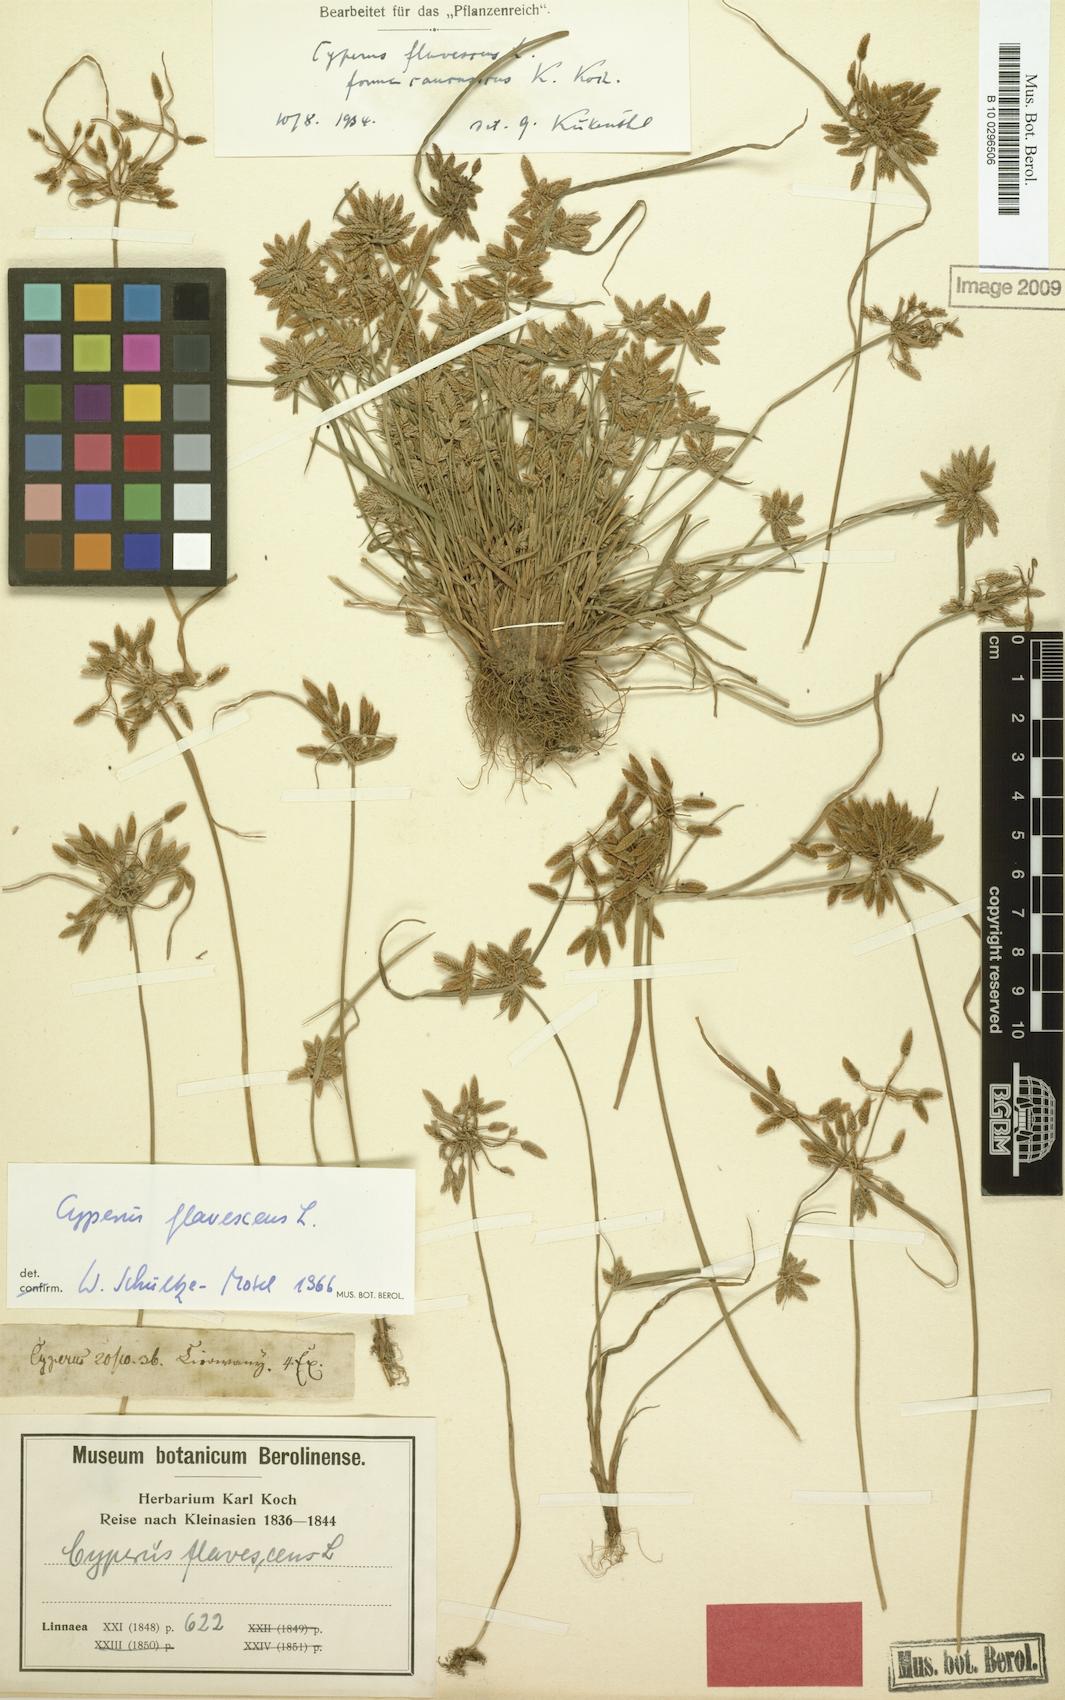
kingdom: Plantae
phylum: Tracheophyta
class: Liliopsida
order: Poales
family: Cyperaceae
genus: Cyperus
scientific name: Cyperus flavescens
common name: Yellow galingale
